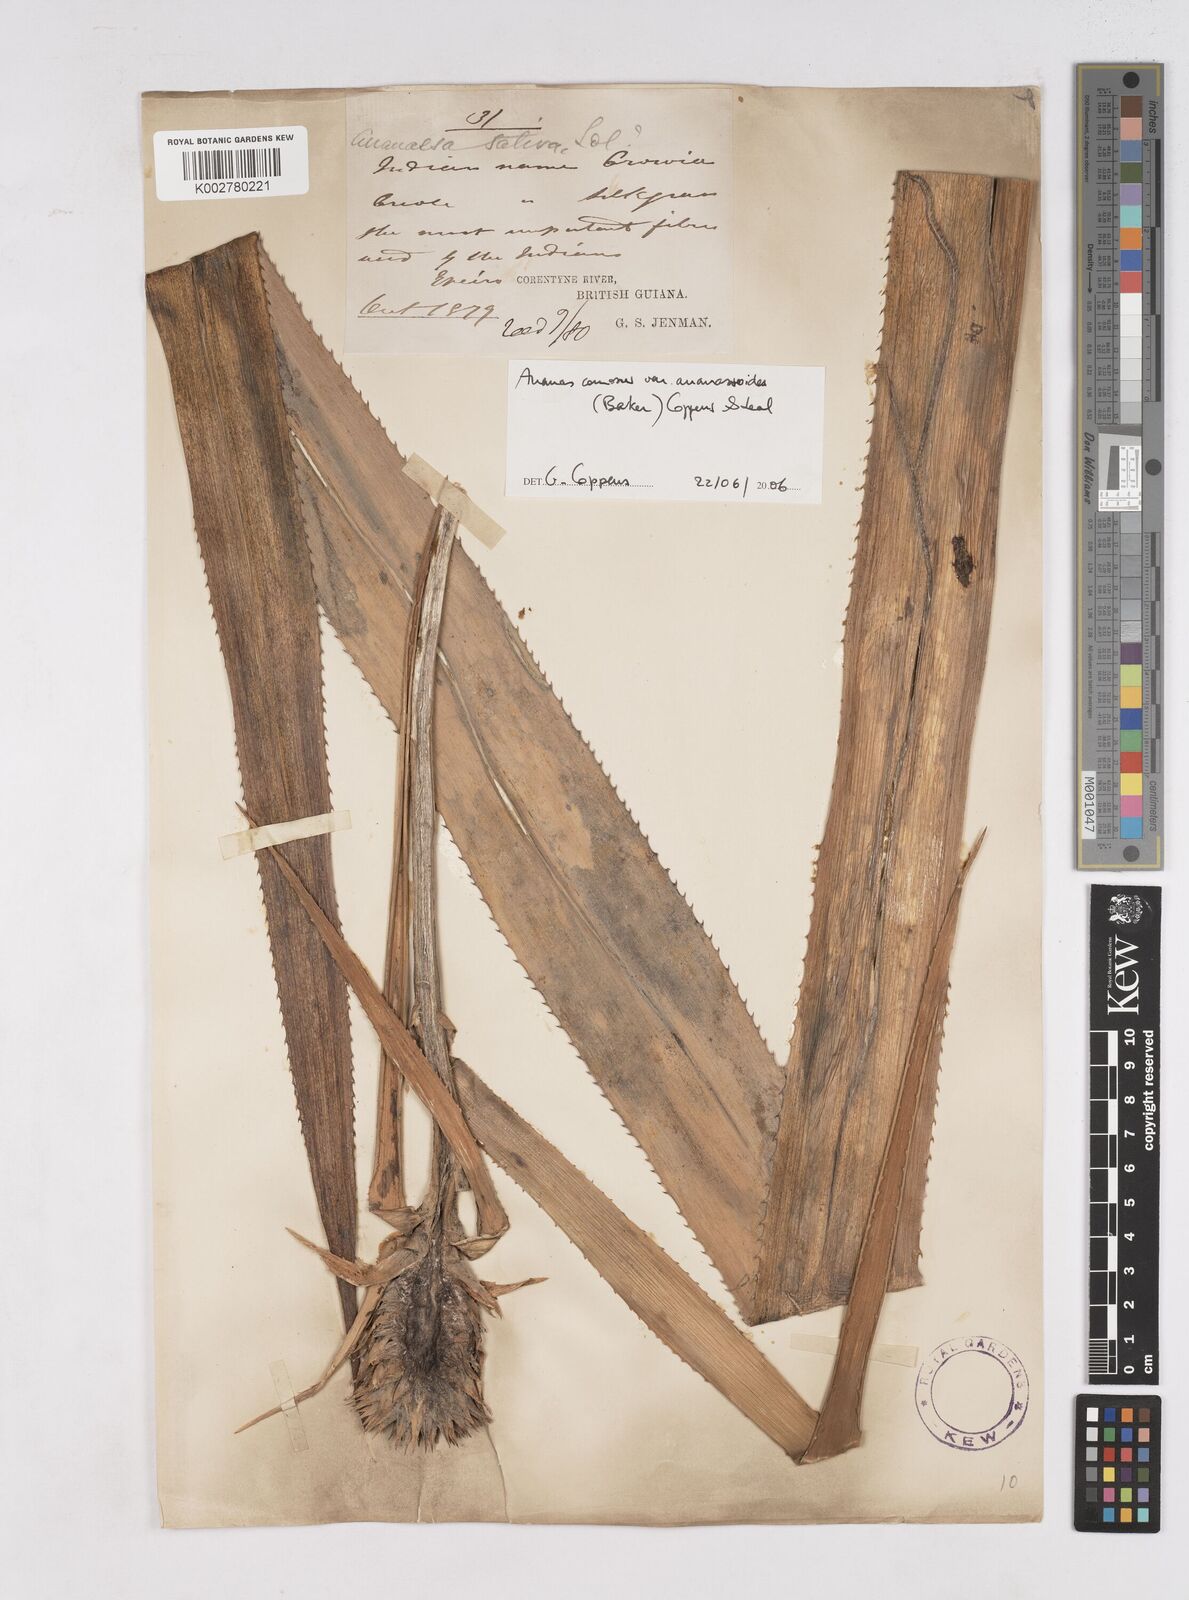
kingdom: Plantae
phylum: Tracheophyta
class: Liliopsida
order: Poales
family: Bromeliaceae
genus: Ananas
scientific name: Ananas comosus
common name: Pineapple
